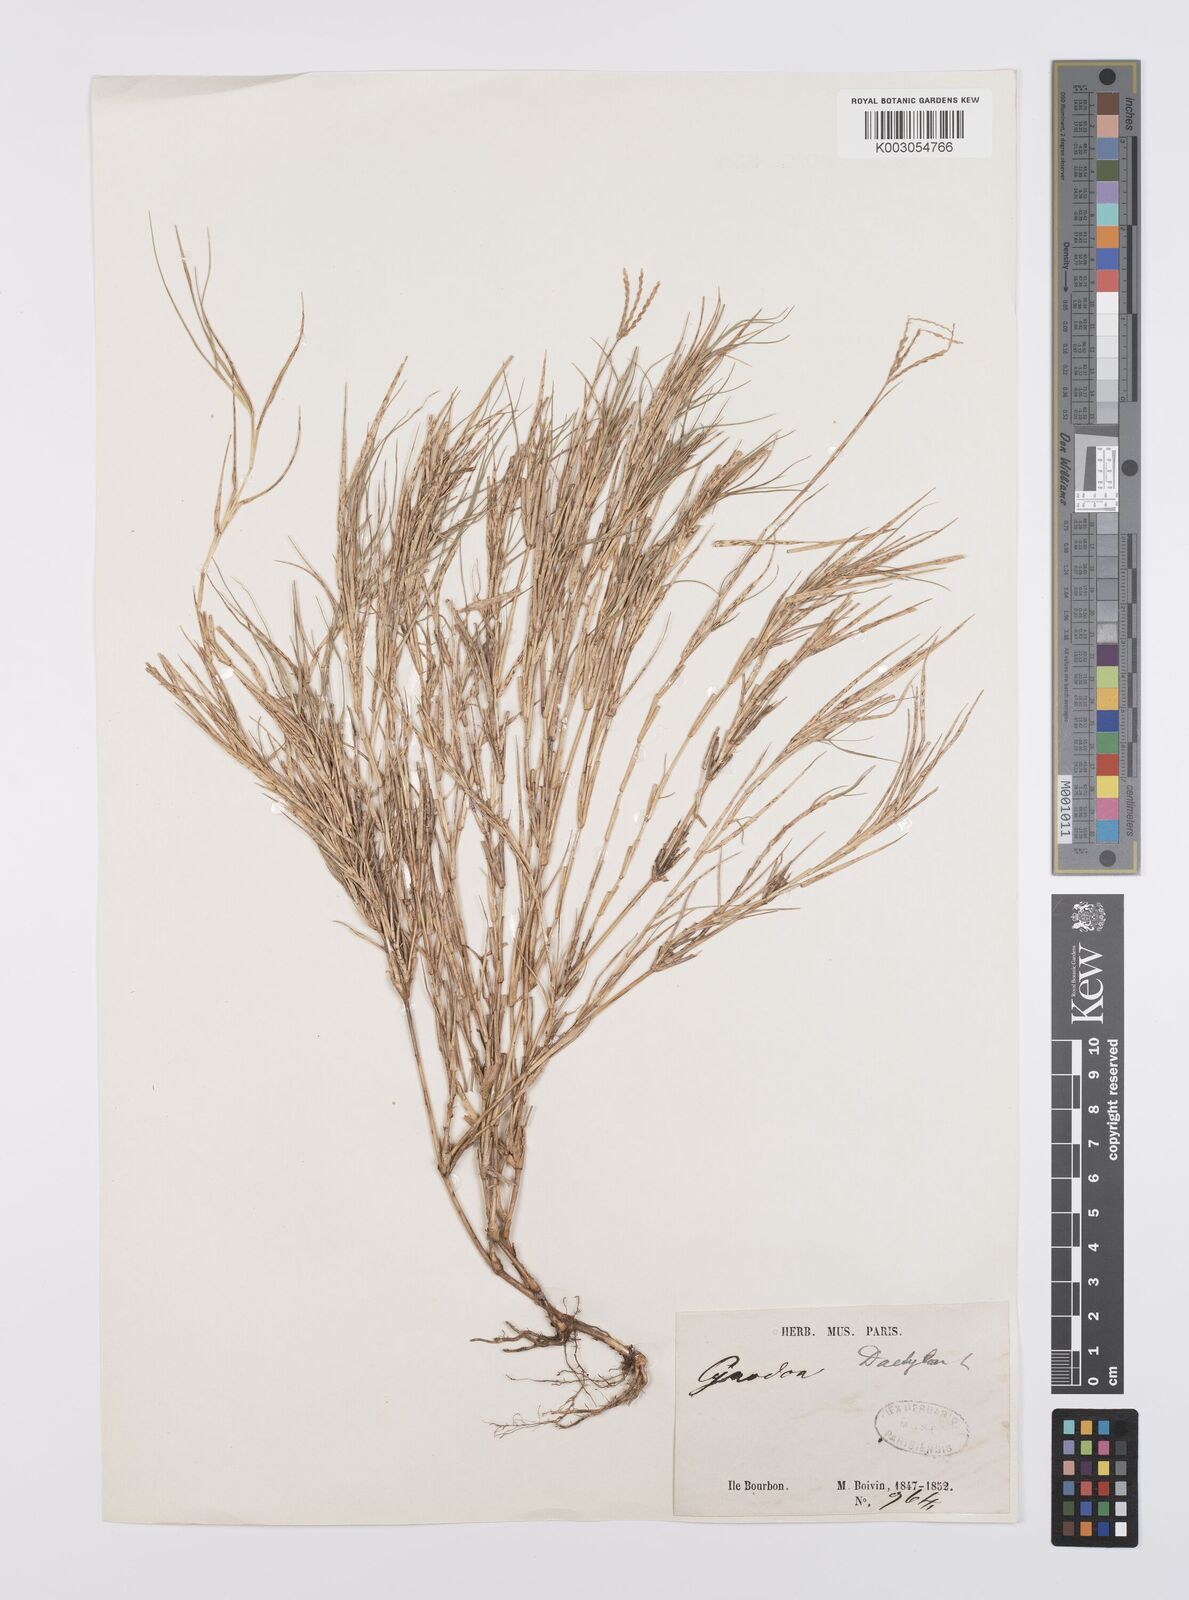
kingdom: Plantae
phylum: Tracheophyta
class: Liliopsida
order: Poales
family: Poaceae
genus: Cynodon
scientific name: Cynodon dactylon
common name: Bermuda grass
